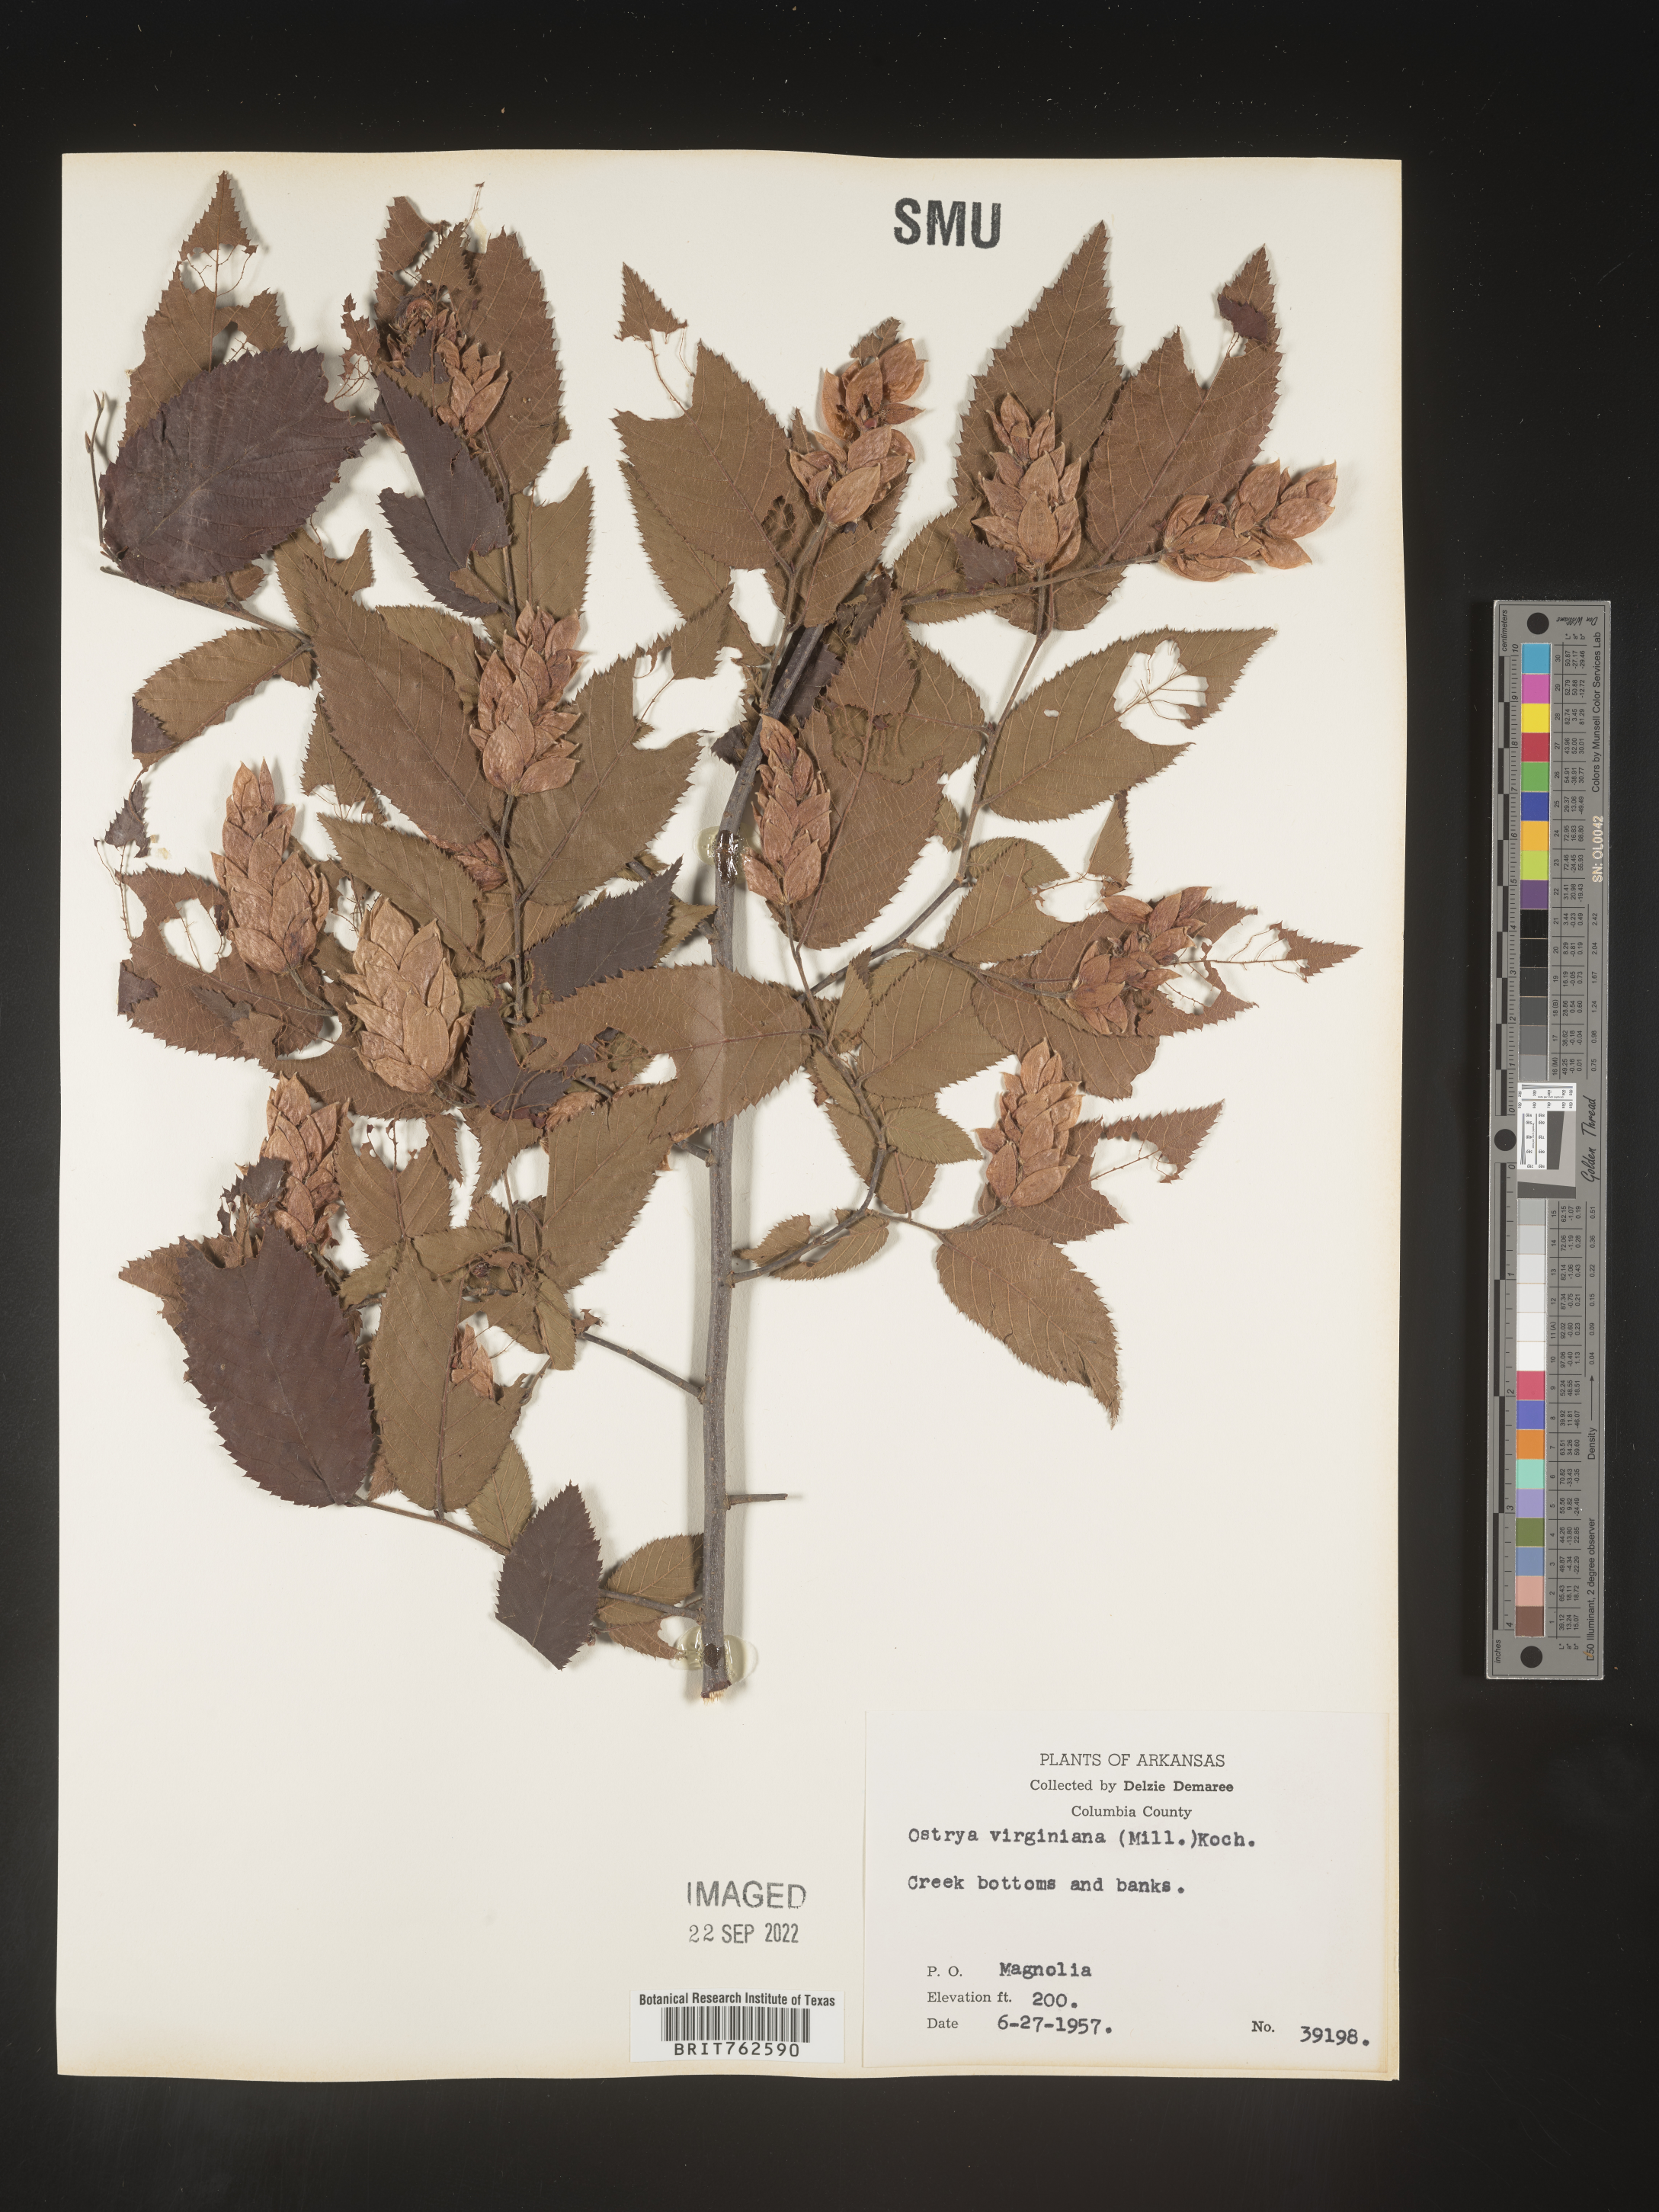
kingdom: Plantae
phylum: Tracheophyta
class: Magnoliopsida
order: Fagales
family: Betulaceae
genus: Ostrya
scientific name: Ostrya virginiana
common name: Ironwood
